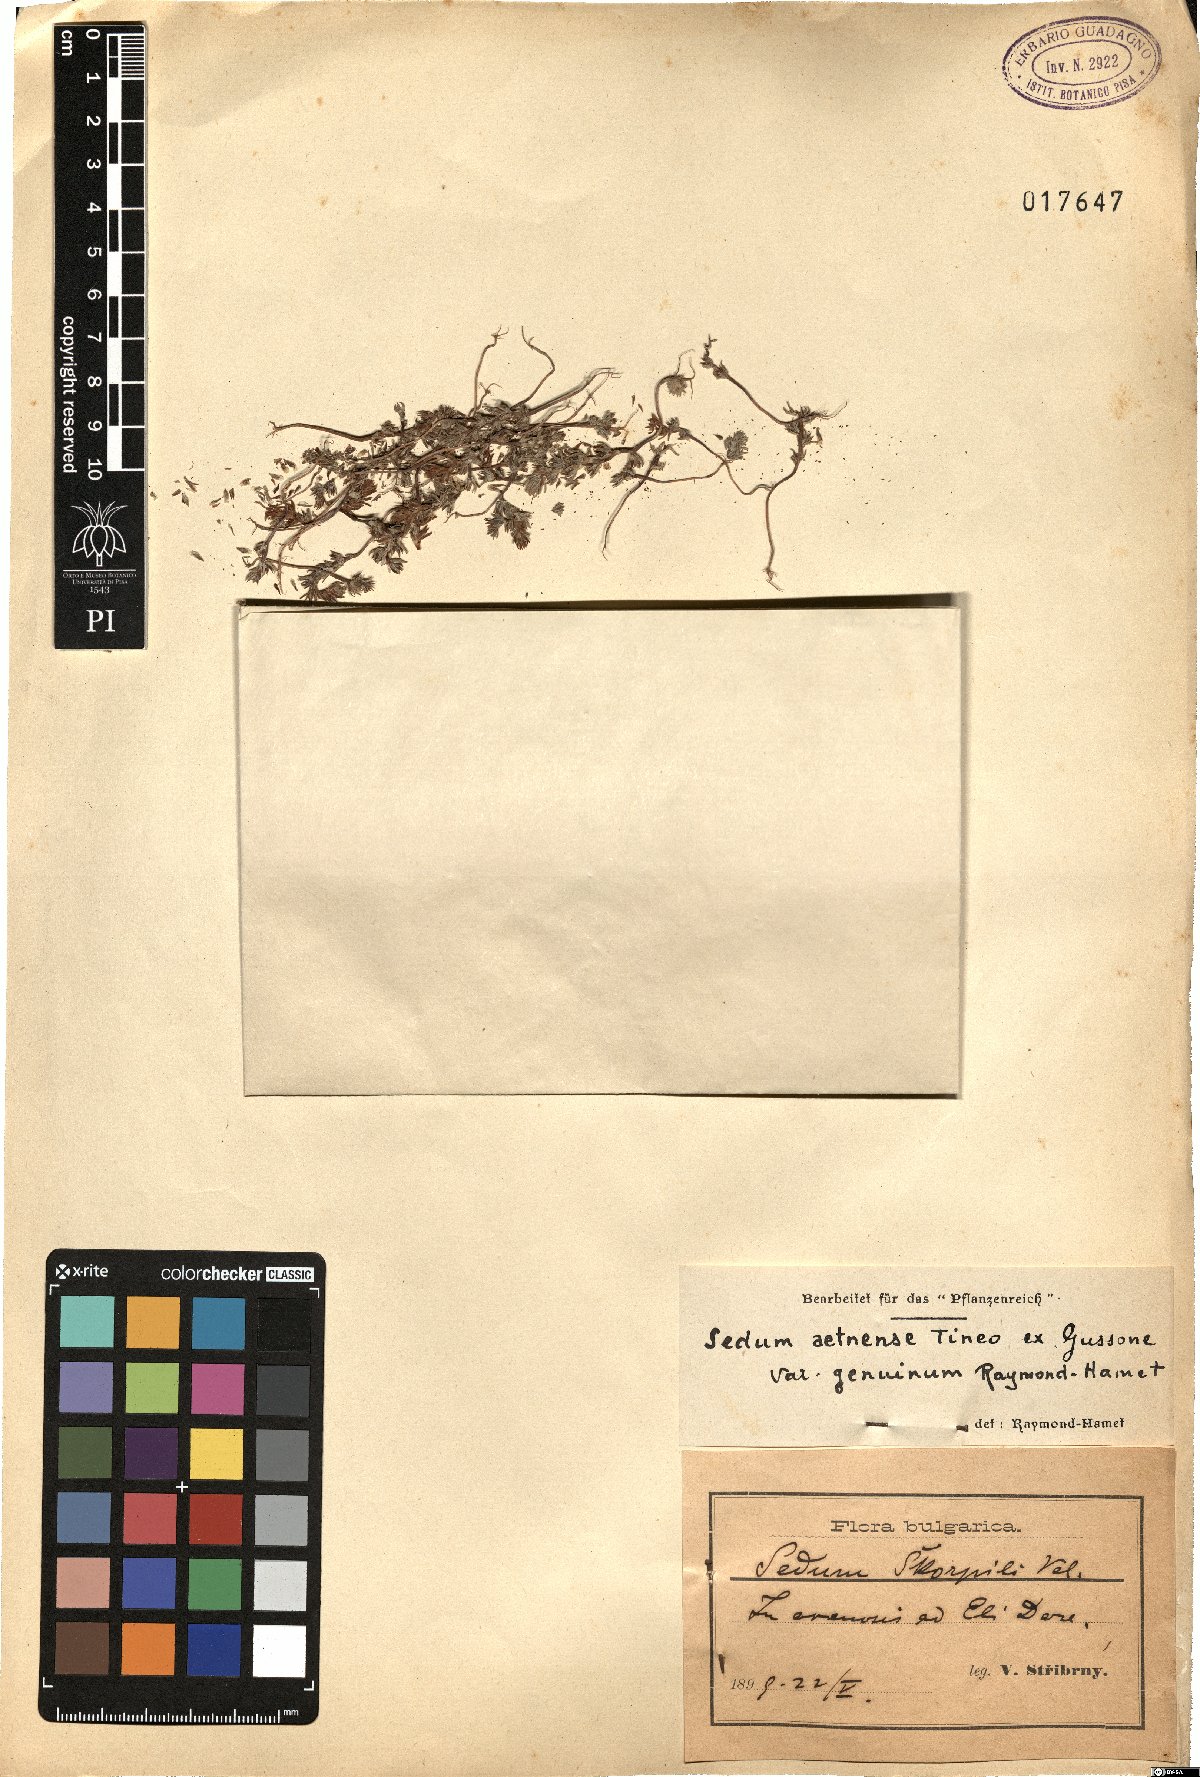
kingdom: Plantae
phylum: Tracheophyta
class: Magnoliopsida
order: Saxifragales
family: Crassulaceae
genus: Sedum
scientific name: Sedum aetnense
